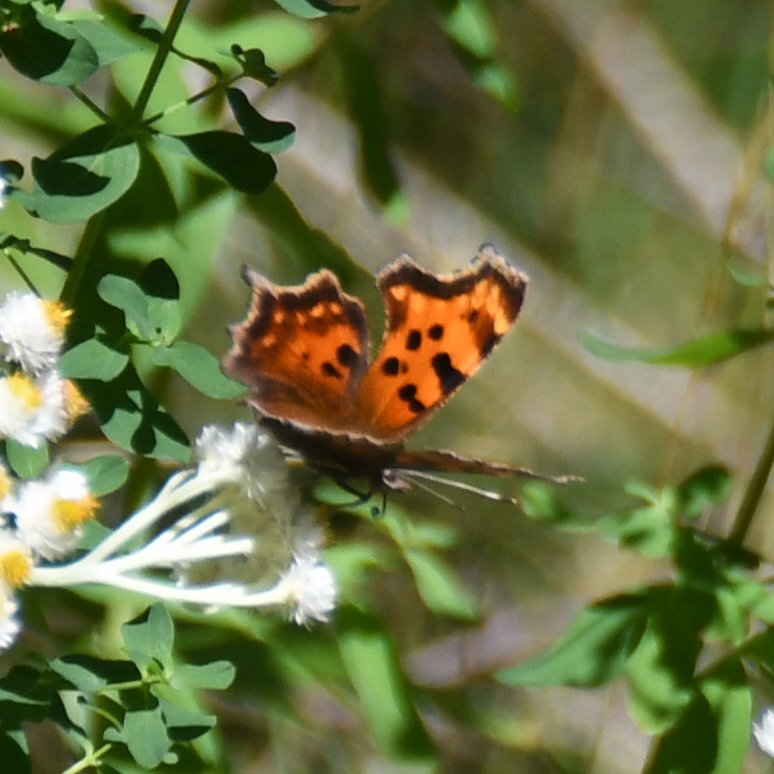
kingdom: Animalia
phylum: Arthropoda
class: Insecta
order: Lepidoptera
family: Nymphalidae
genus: Polygonia
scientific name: Polygonia faunus
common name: Green Comma
